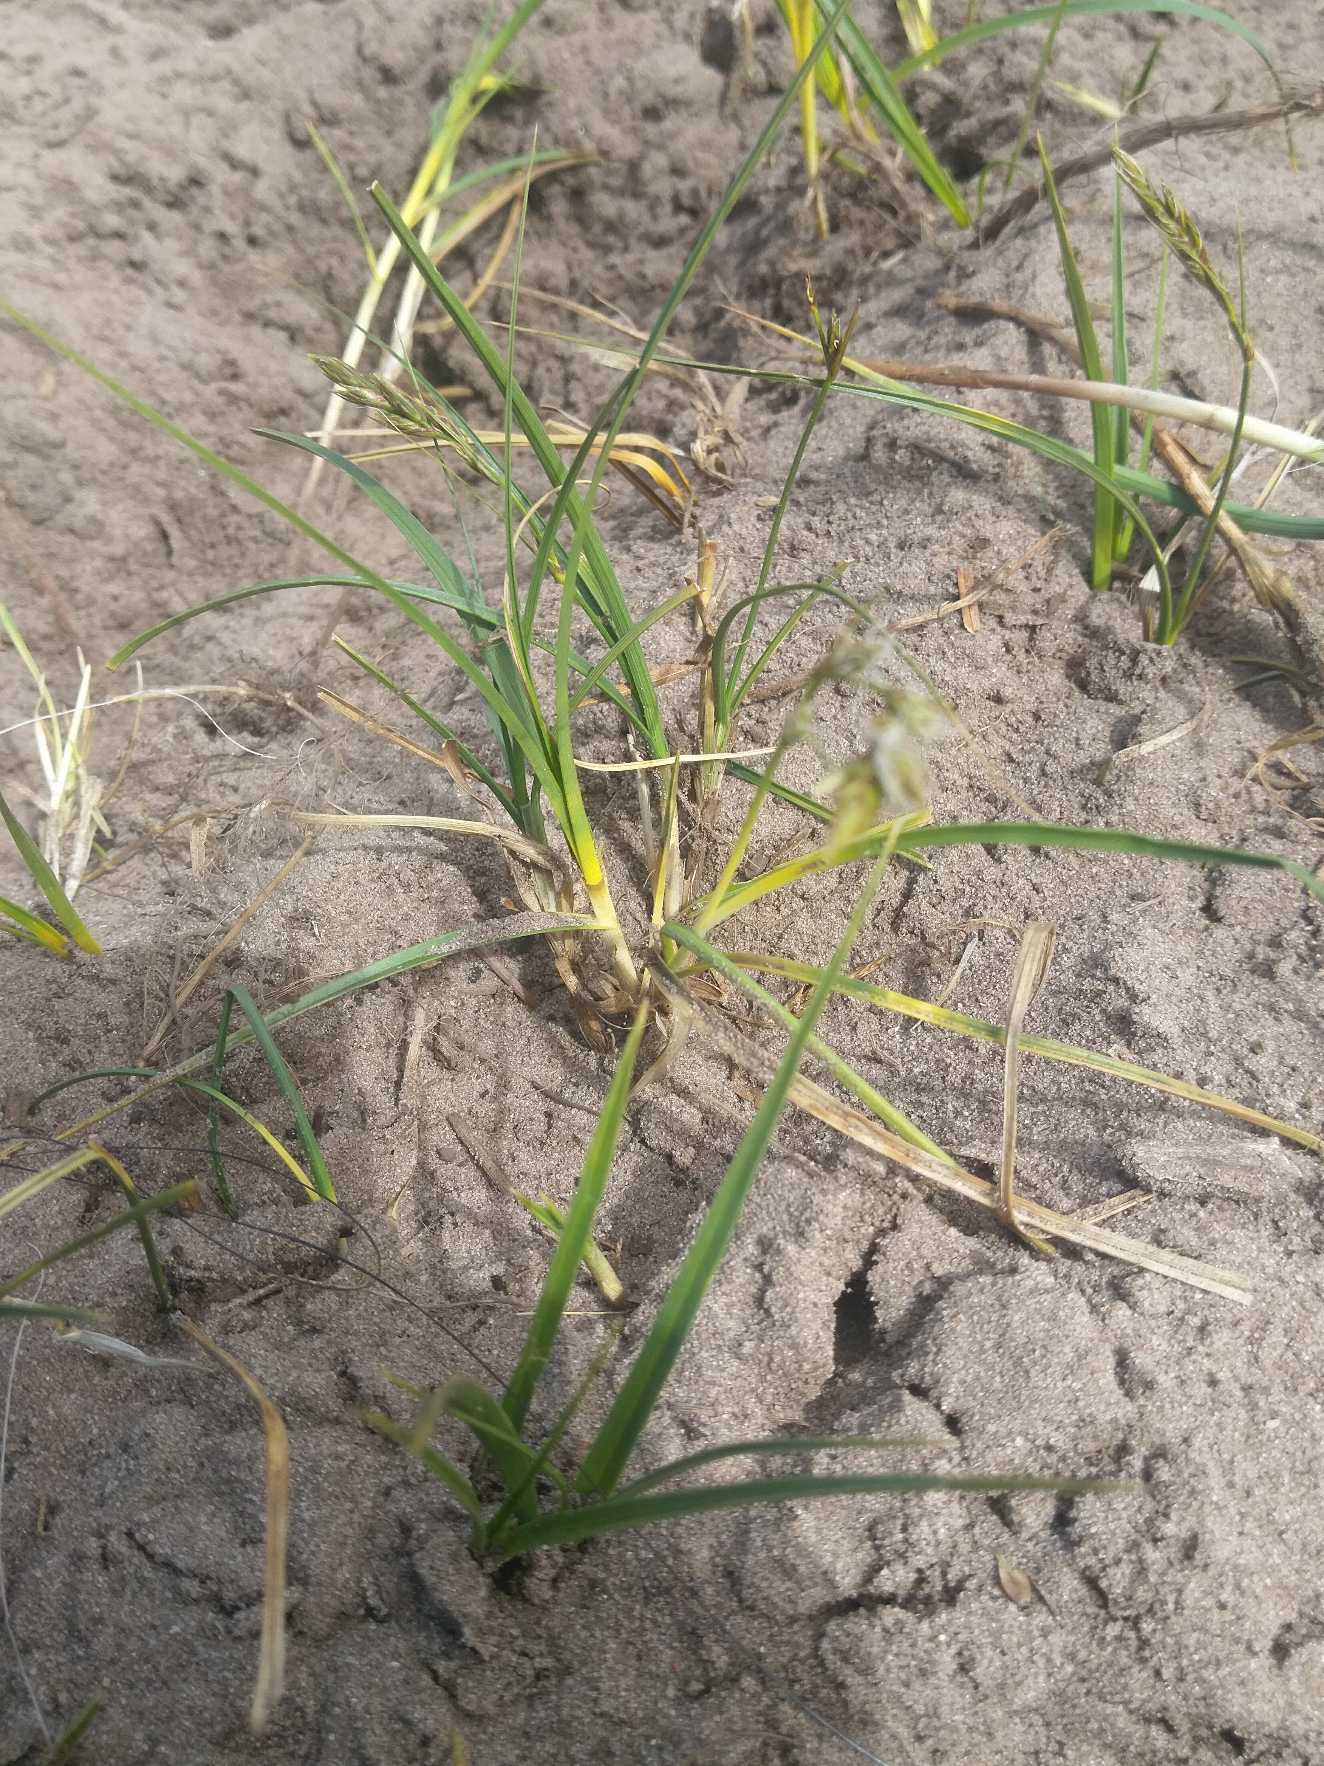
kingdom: Plantae
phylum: Tracheophyta
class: Liliopsida
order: Poales
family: Cyperaceae
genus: Carex
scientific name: Carex arenaria
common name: Sand-star
